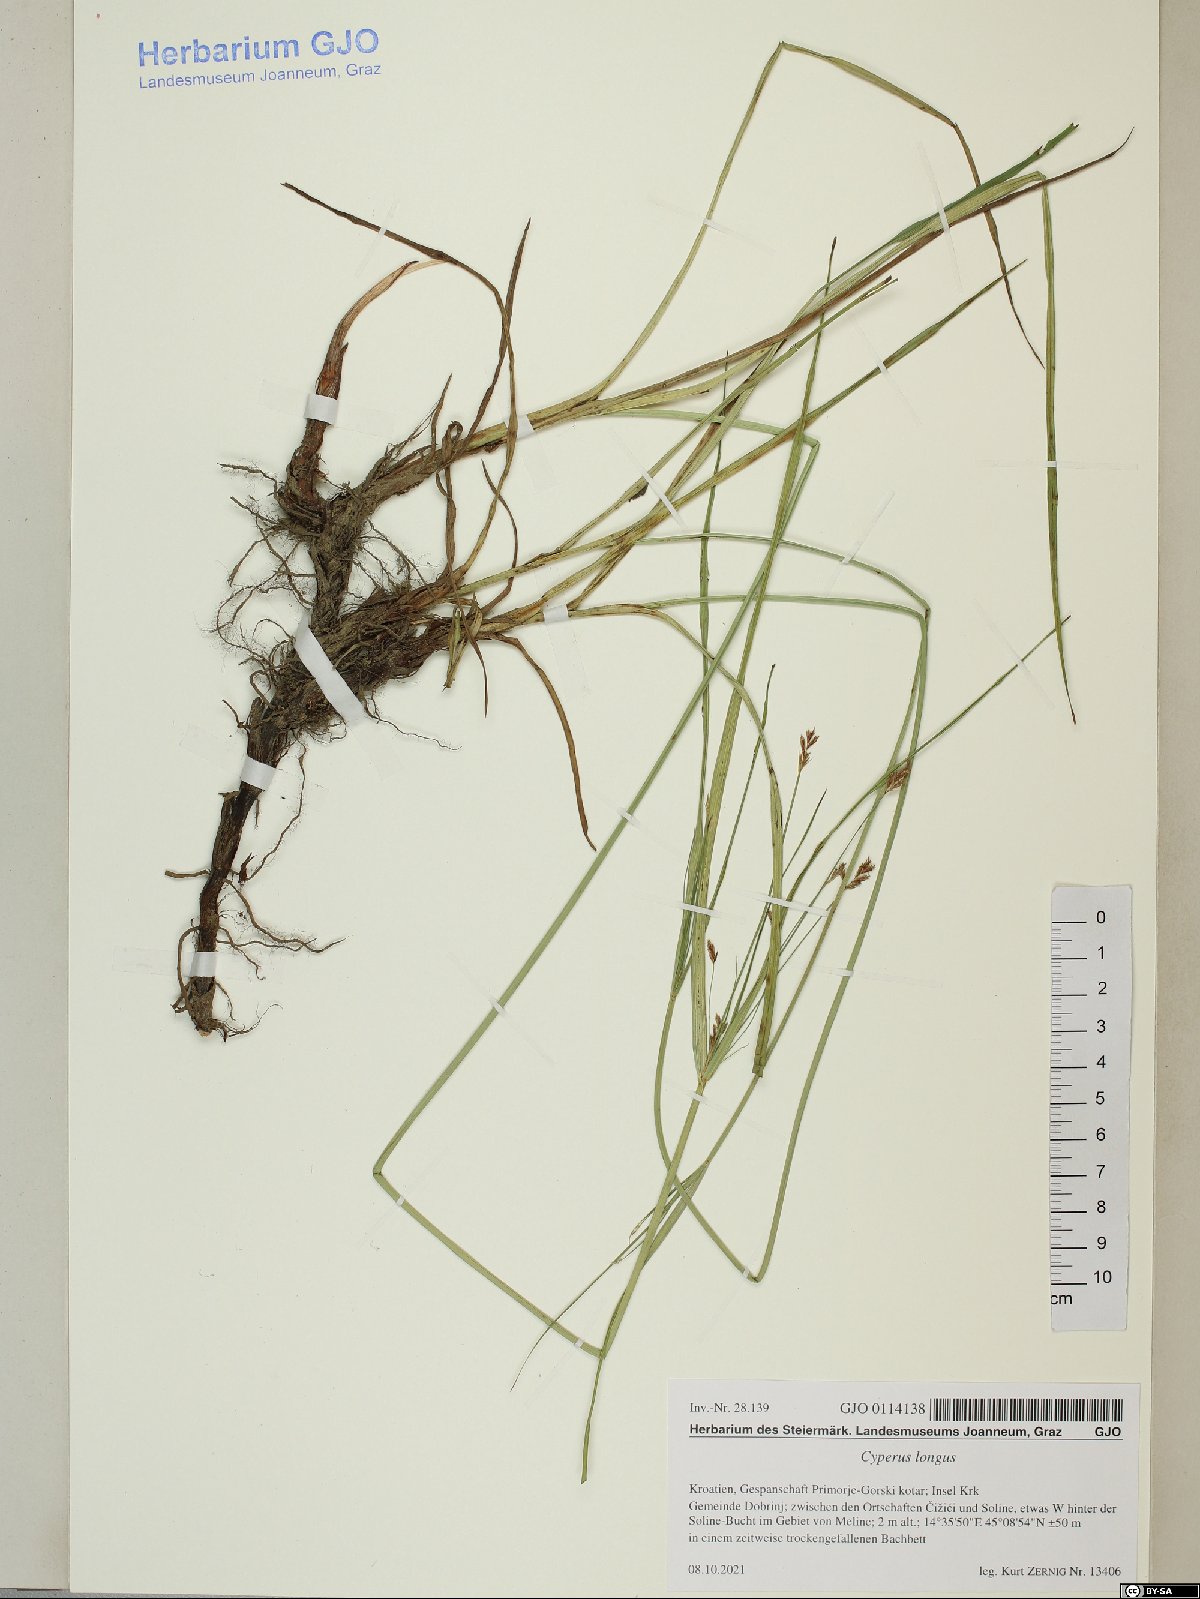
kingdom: Plantae
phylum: Tracheophyta
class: Liliopsida
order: Poales
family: Cyperaceae
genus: Cyperus
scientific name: Cyperus longus
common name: Galingale
